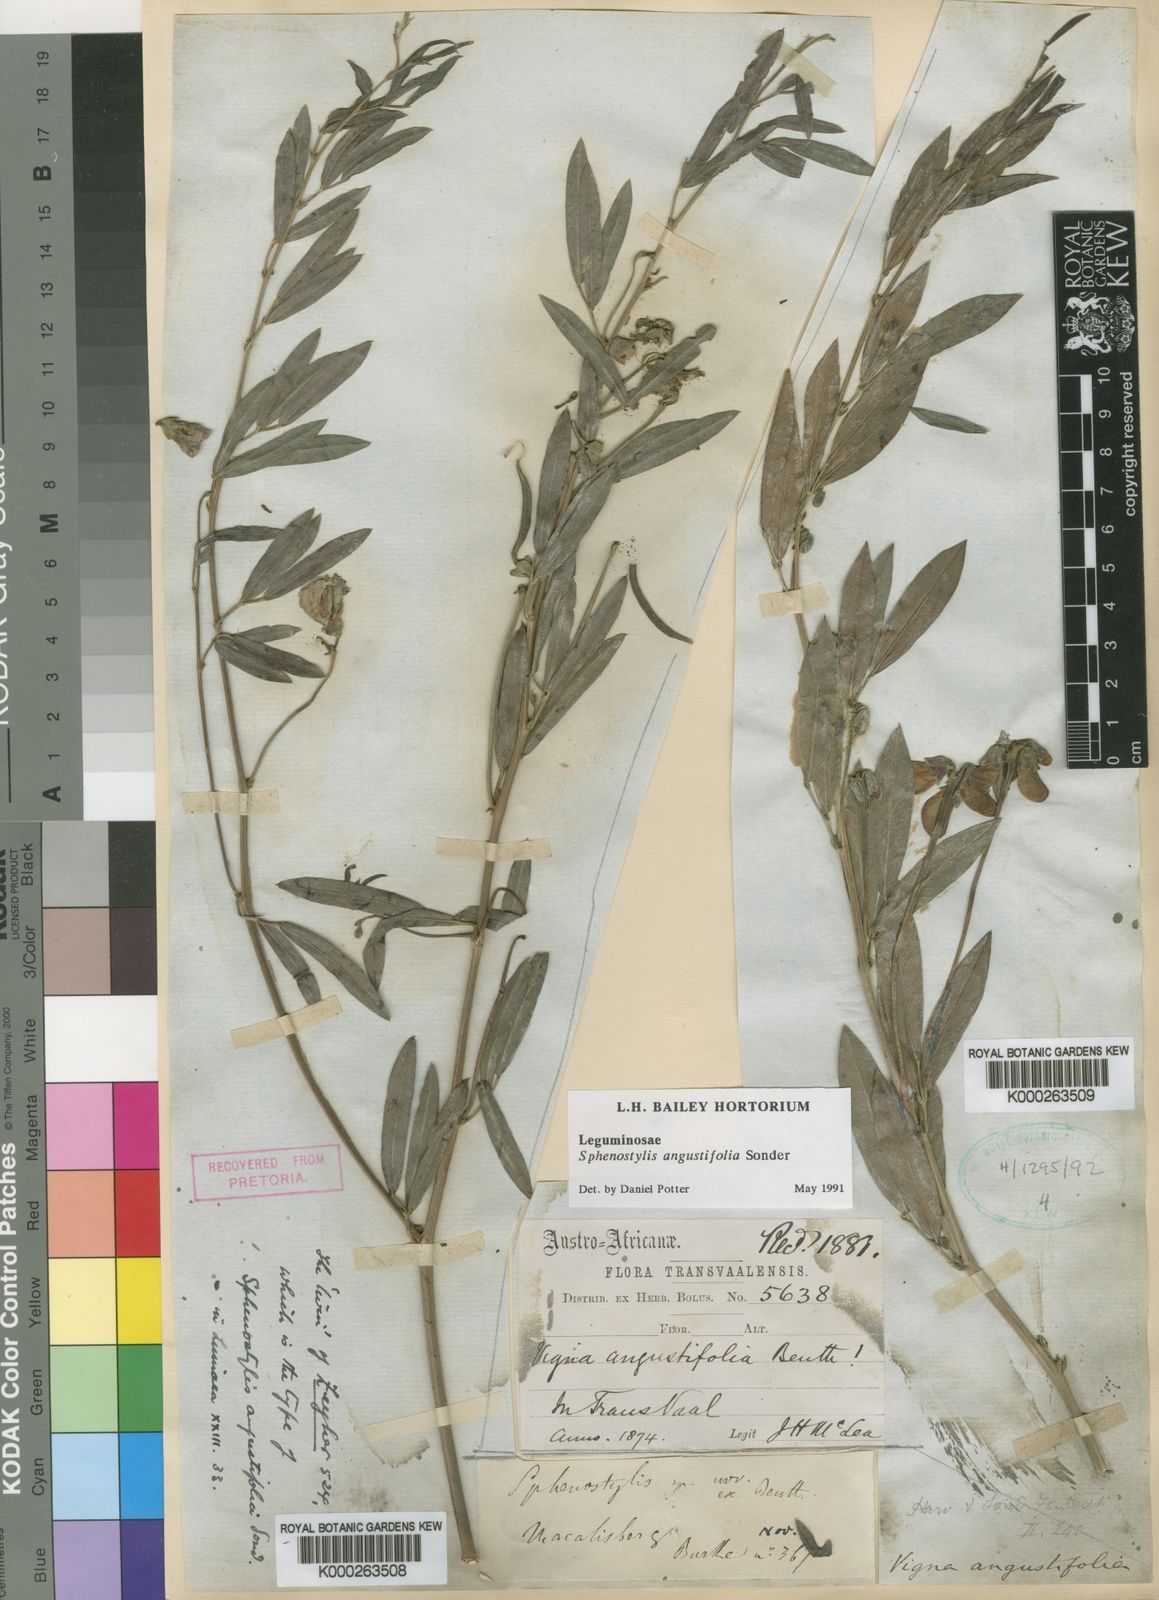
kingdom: Plantae
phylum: Tracheophyta
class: Magnoliopsida
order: Fabales
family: Fabaceae
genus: Sphenostylis
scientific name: Sphenostylis angustifolia
